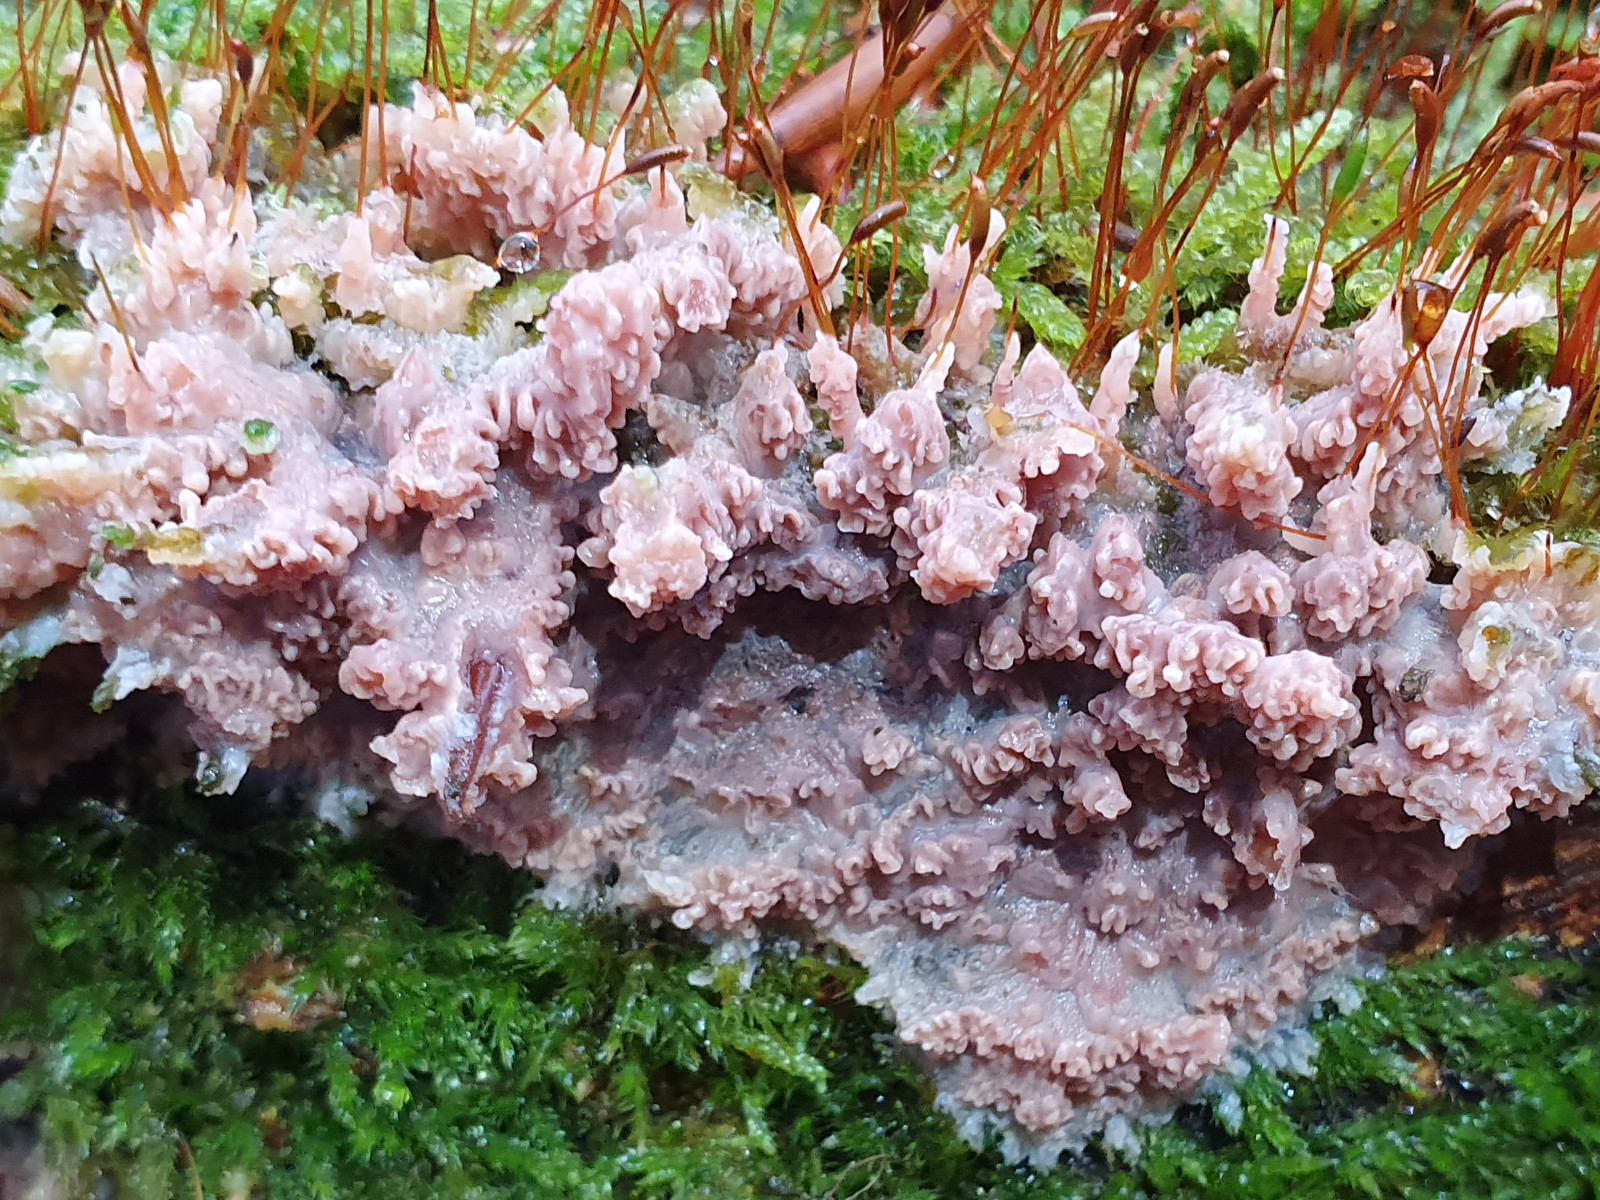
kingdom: Fungi
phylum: Basidiomycota
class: Agaricomycetes
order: Polyporales
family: Meruliaceae
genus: Phlebia
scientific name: Phlebia radiata
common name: stråle-åresvamp
